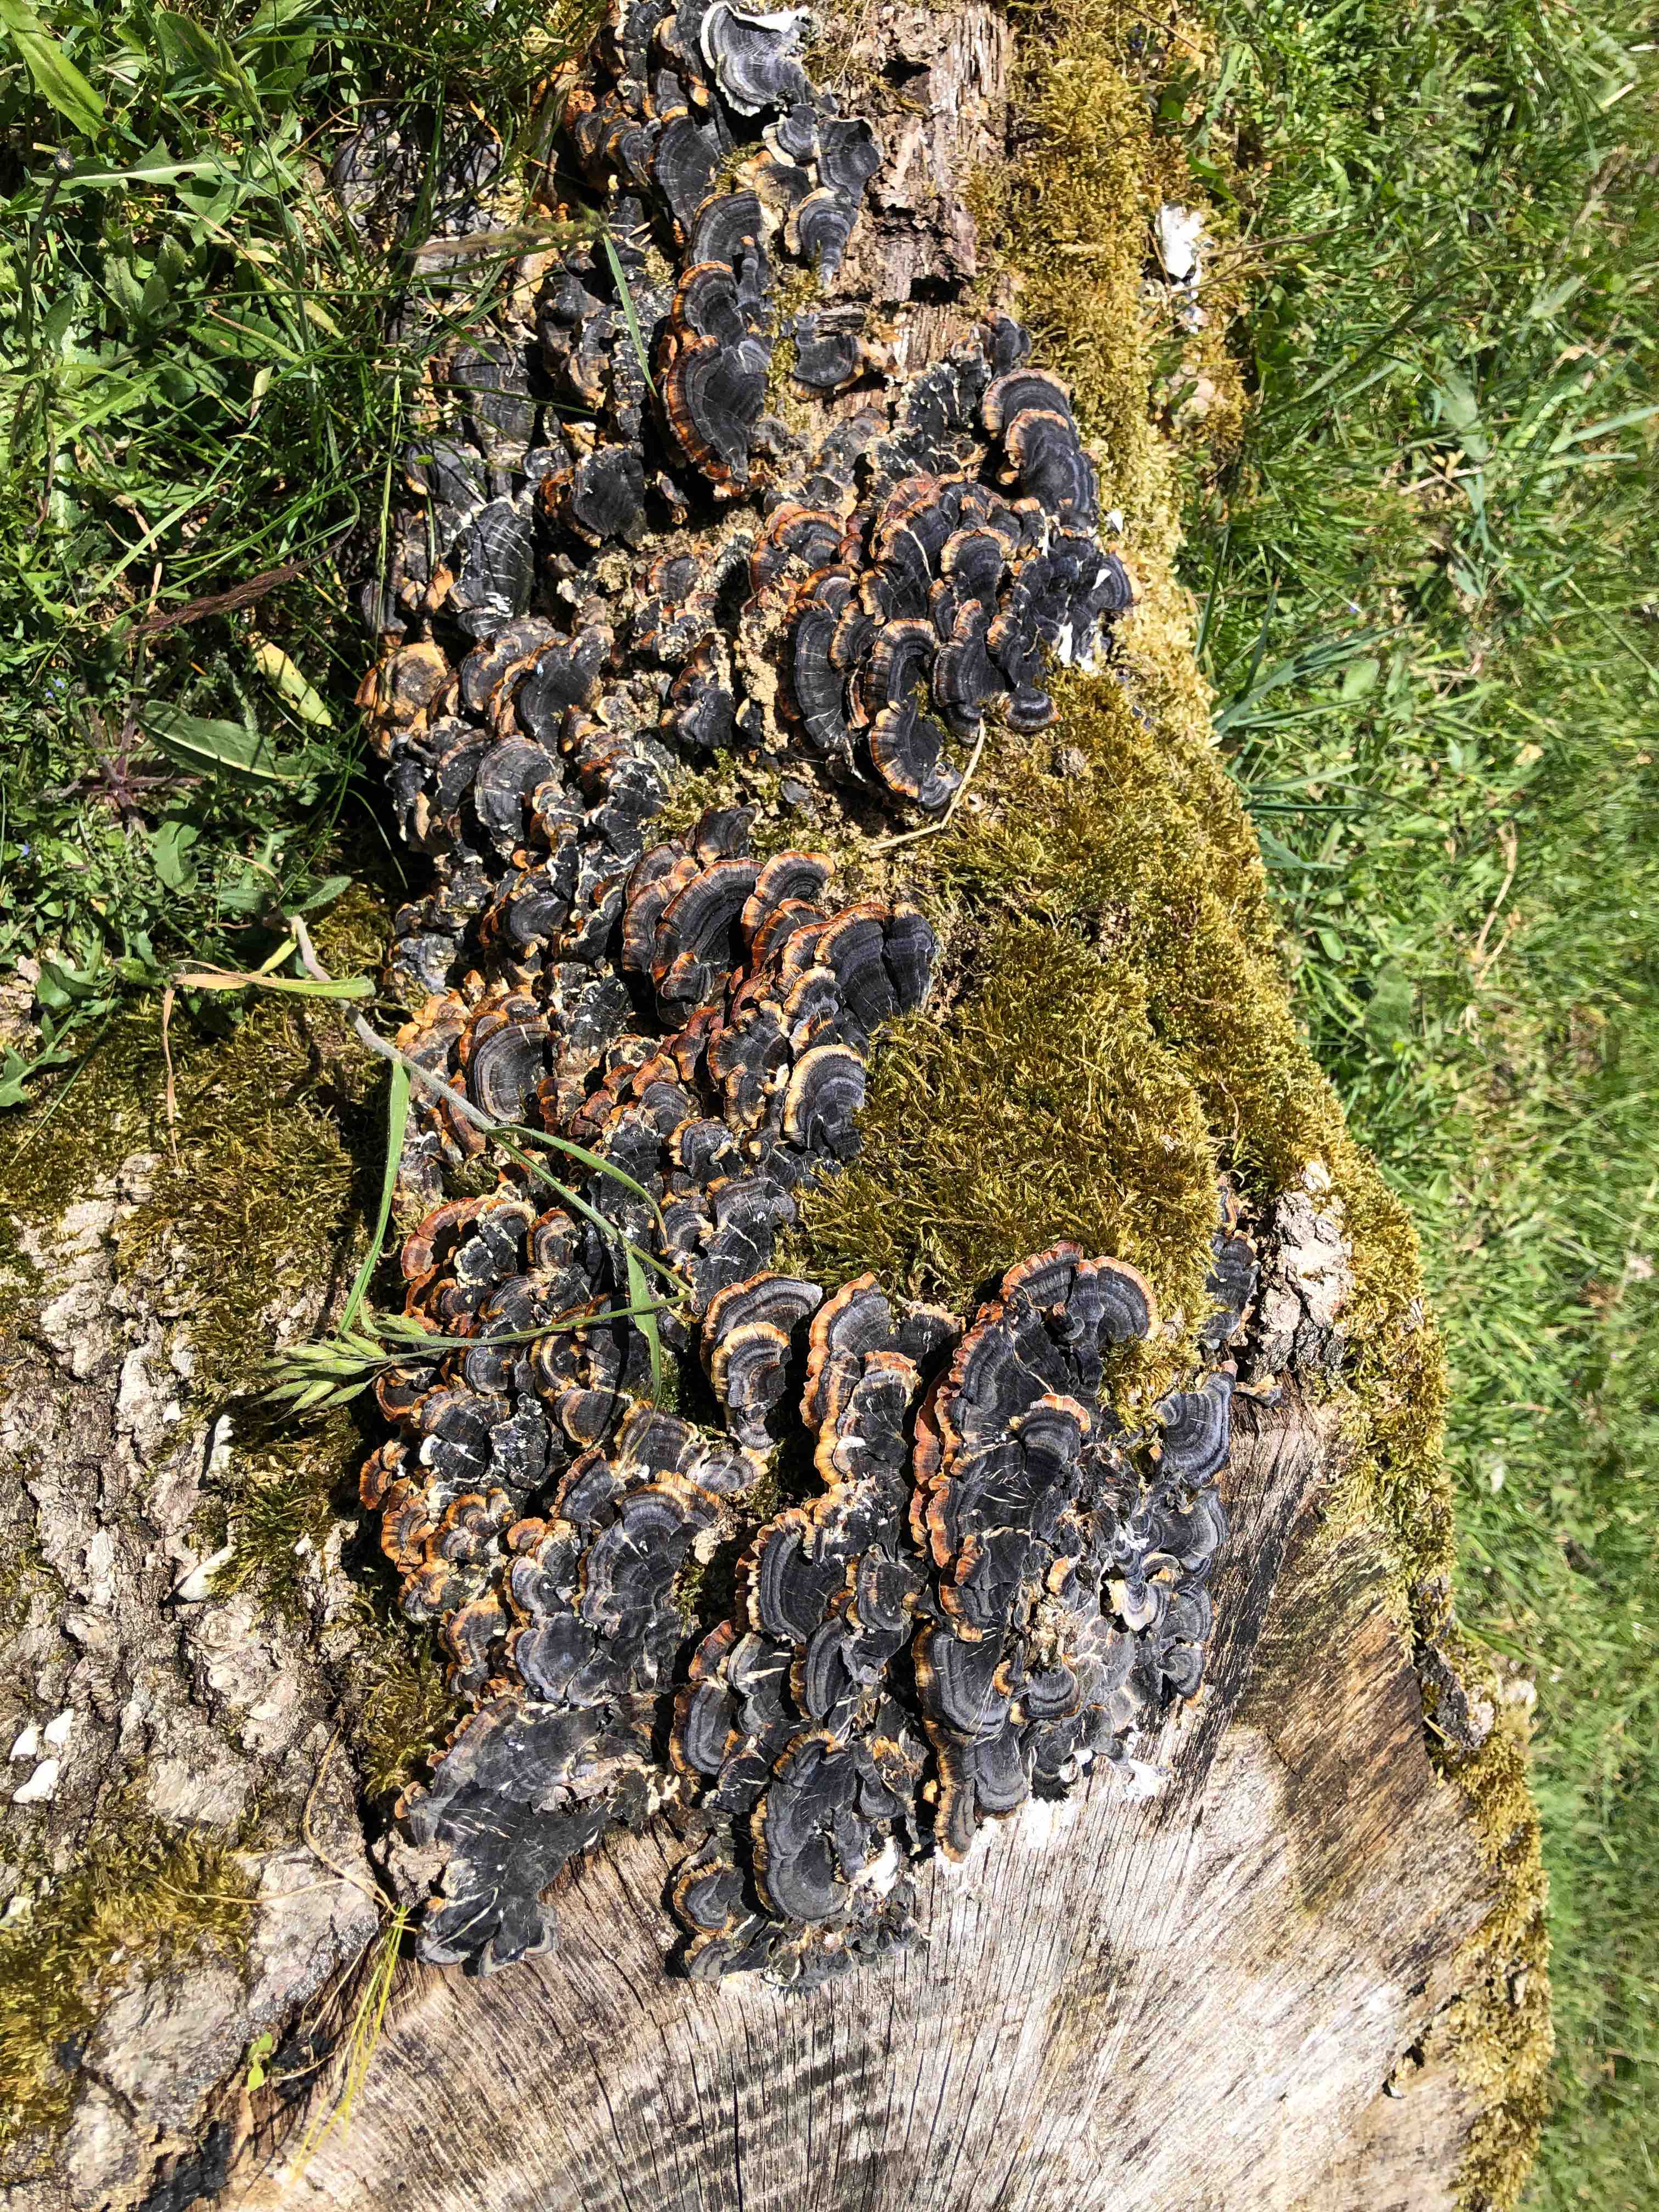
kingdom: Fungi
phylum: Basidiomycota
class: Agaricomycetes
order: Polyporales
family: Polyporaceae
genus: Trametes
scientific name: Trametes versicolor
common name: broget læderporesvamp
